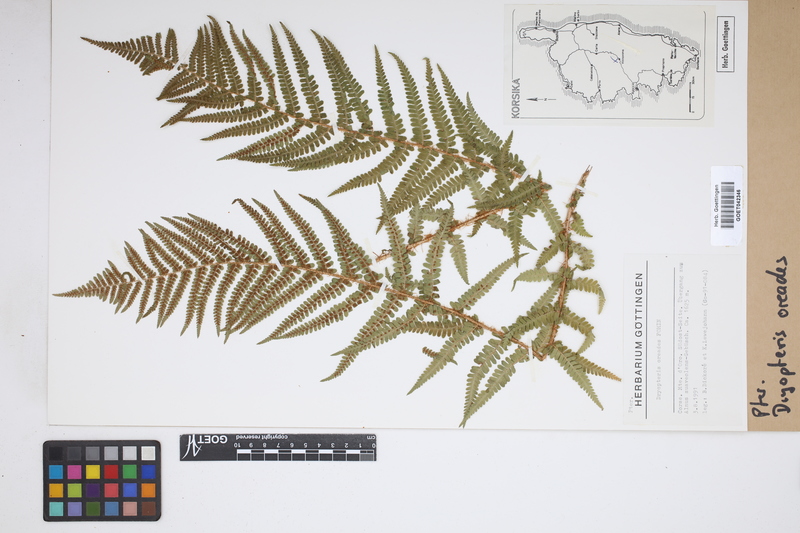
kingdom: Plantae
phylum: Tracheophyta
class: Polypodiopsida
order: Polypodiales
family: Dryopteridaceae
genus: Dryopteris
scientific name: Dryopteris oreades
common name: Mountain male fern
